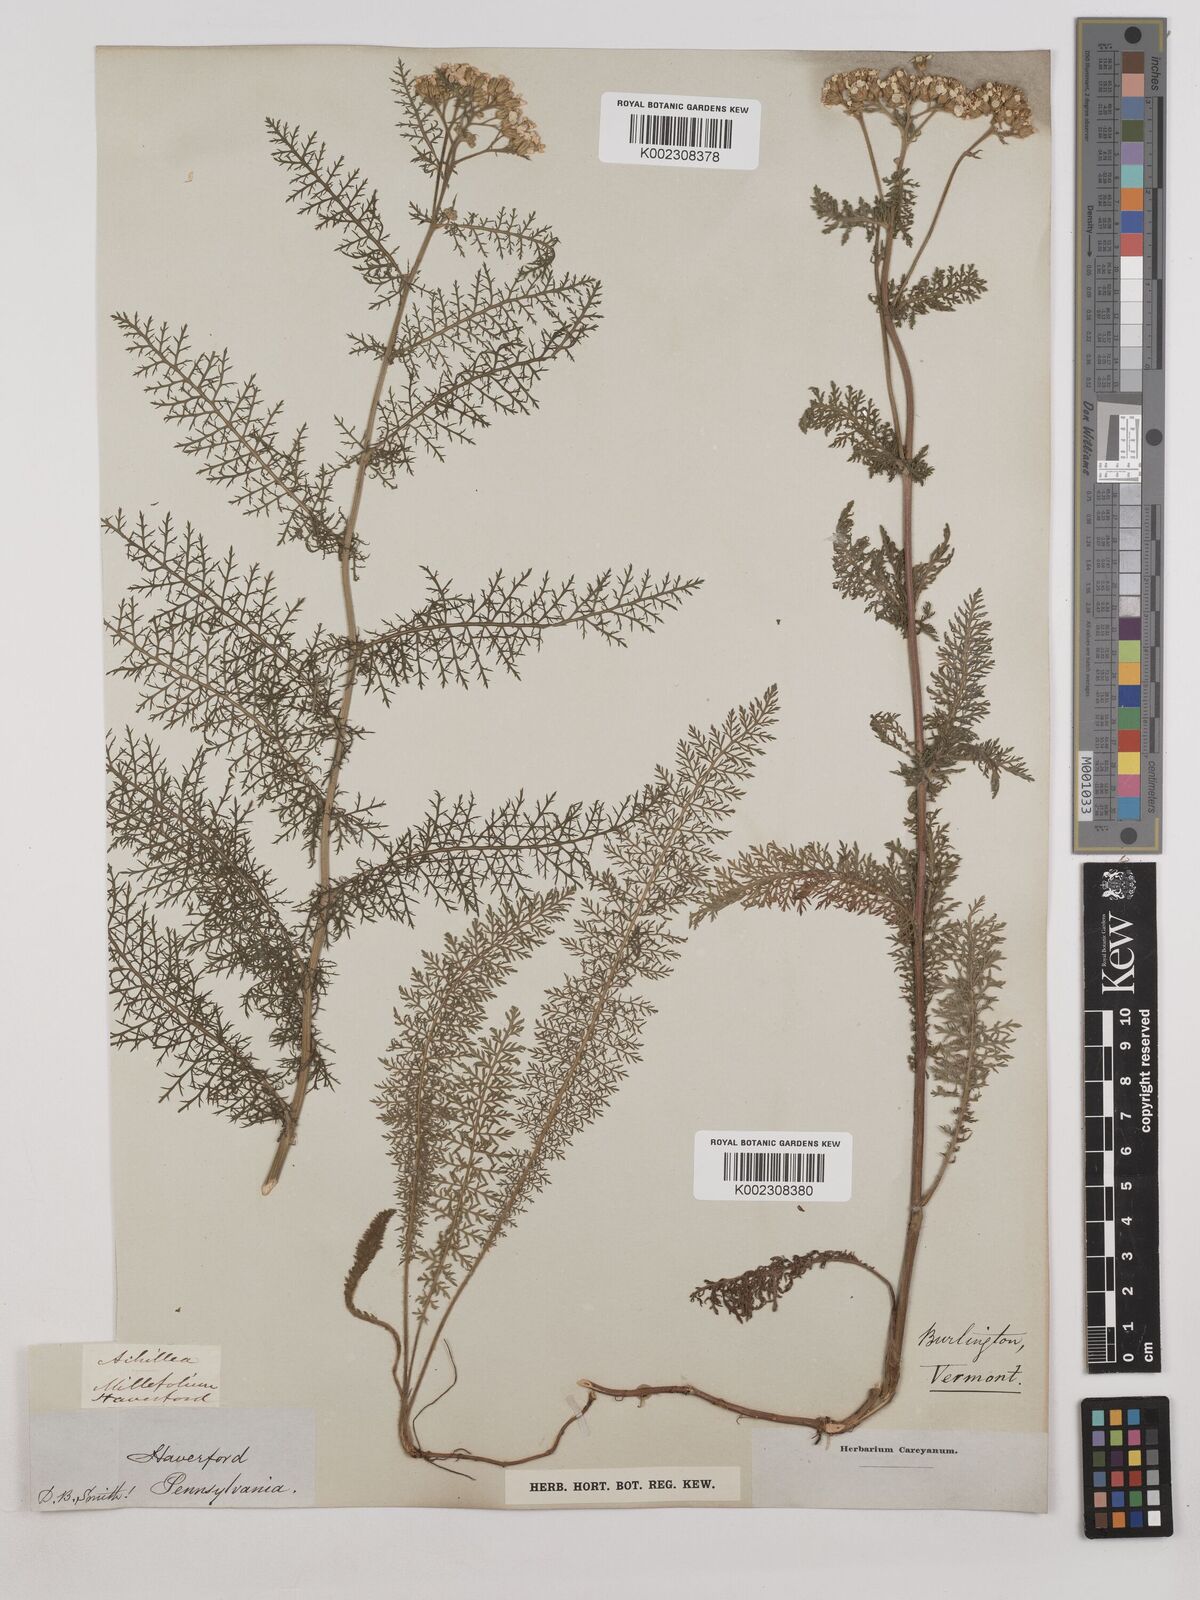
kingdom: Plantae
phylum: Tracheophyta
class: Magnoliopsida
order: Asterales
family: Asteraceae
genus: Achillea
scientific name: Achillea millefolium
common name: Yarrow
